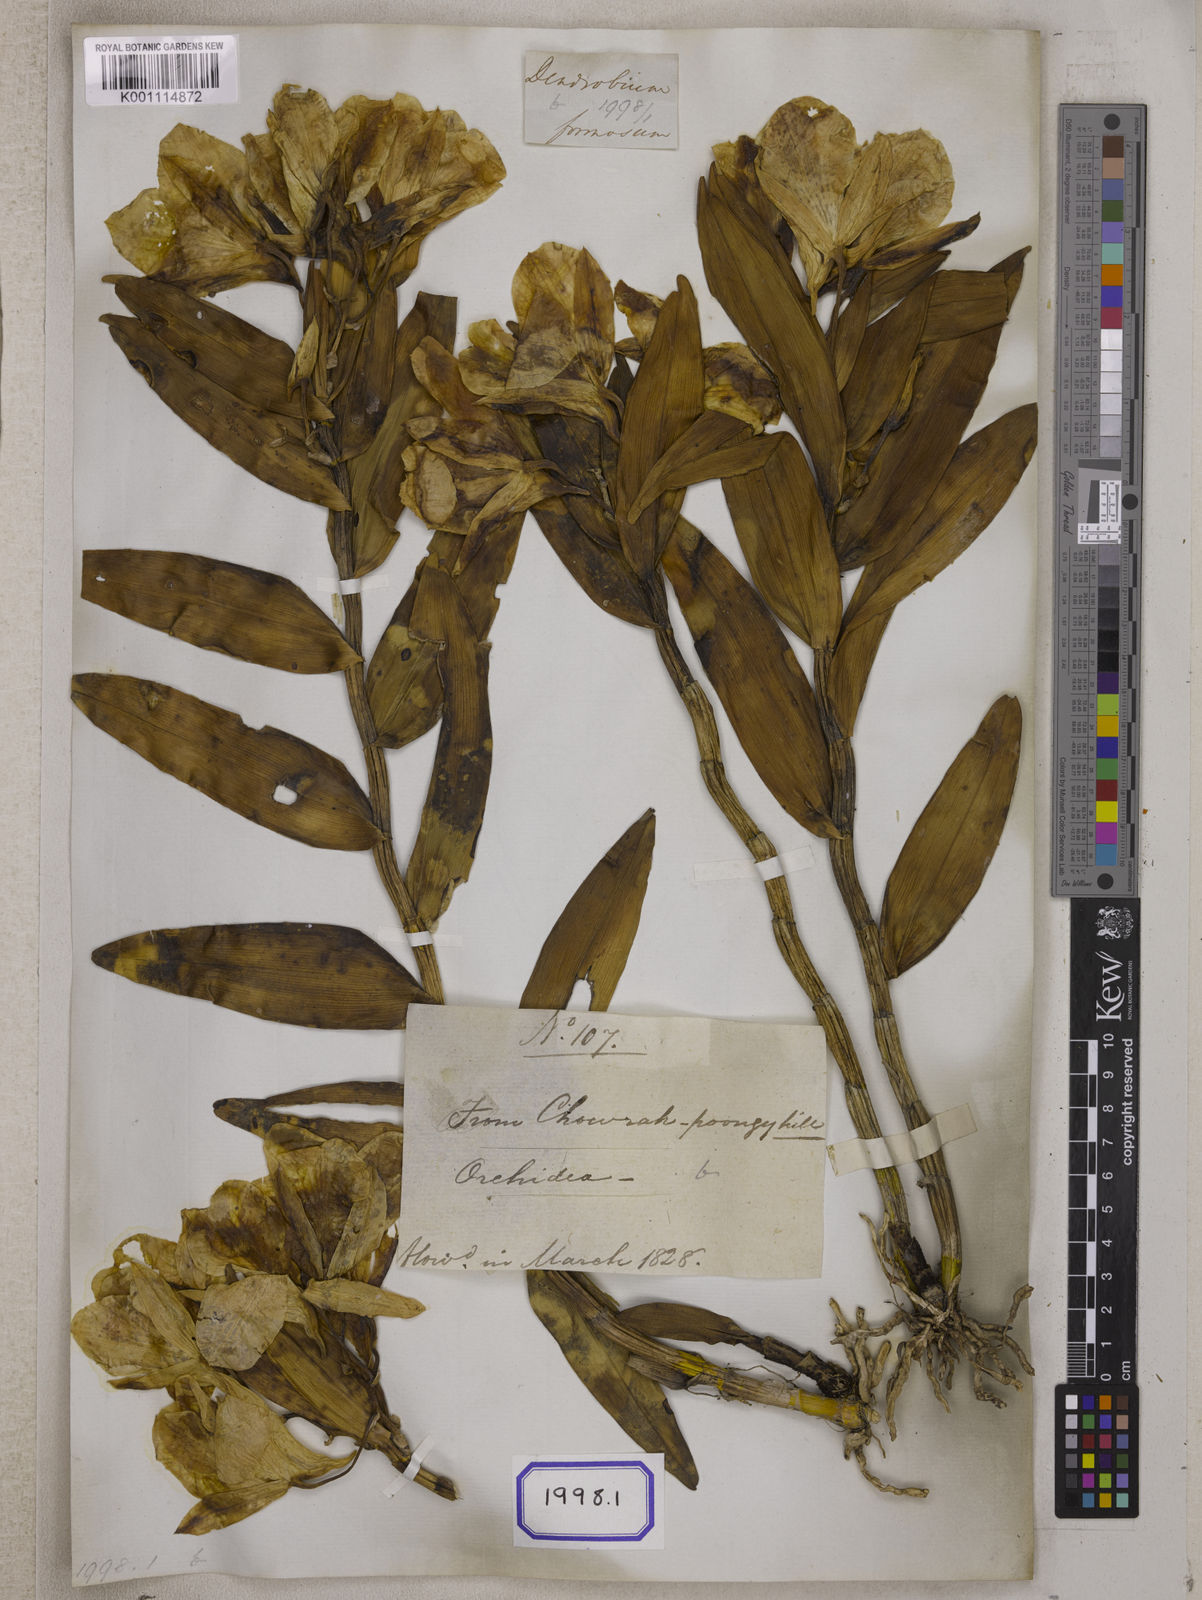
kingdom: Plantae
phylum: Tracheophyta
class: Liliopsida
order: Asparagales
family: Orchidaceae
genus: Dendrobium
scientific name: Dendrobium
